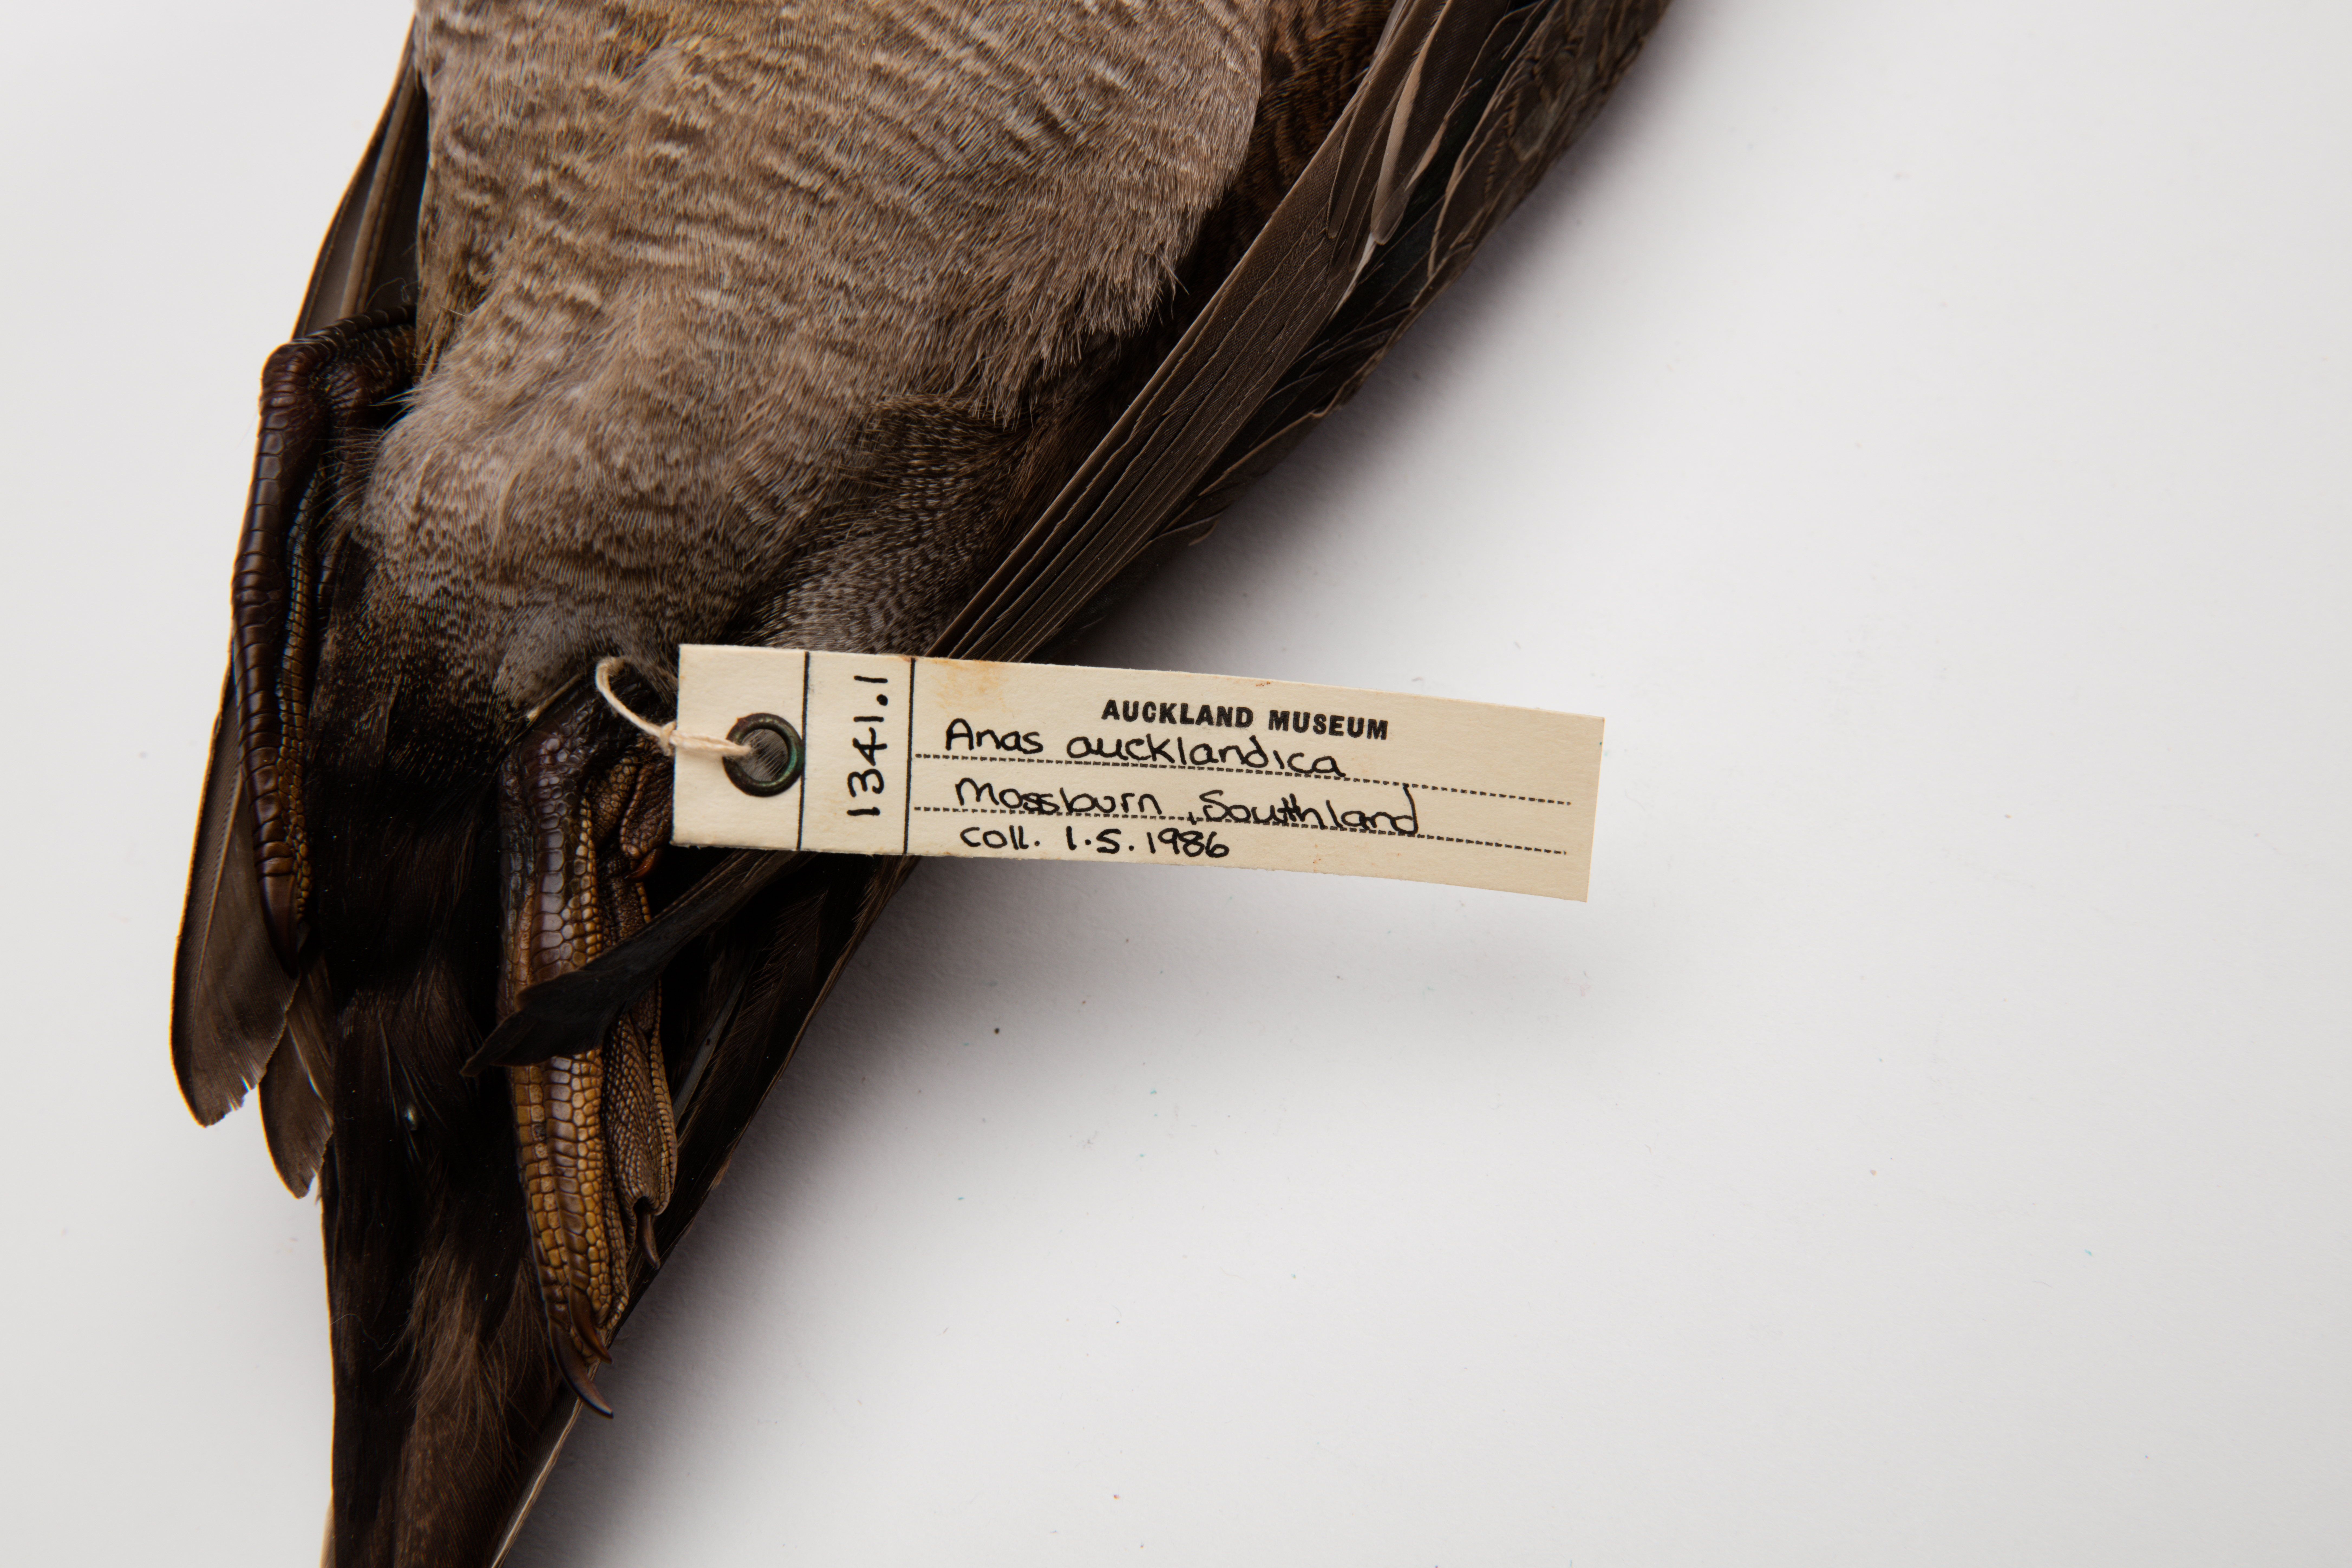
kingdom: Animalia
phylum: Chordata
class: Aves
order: Anseriformes
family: Anatidae
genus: Anas
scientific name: Anas chlorotis
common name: Brown teal
